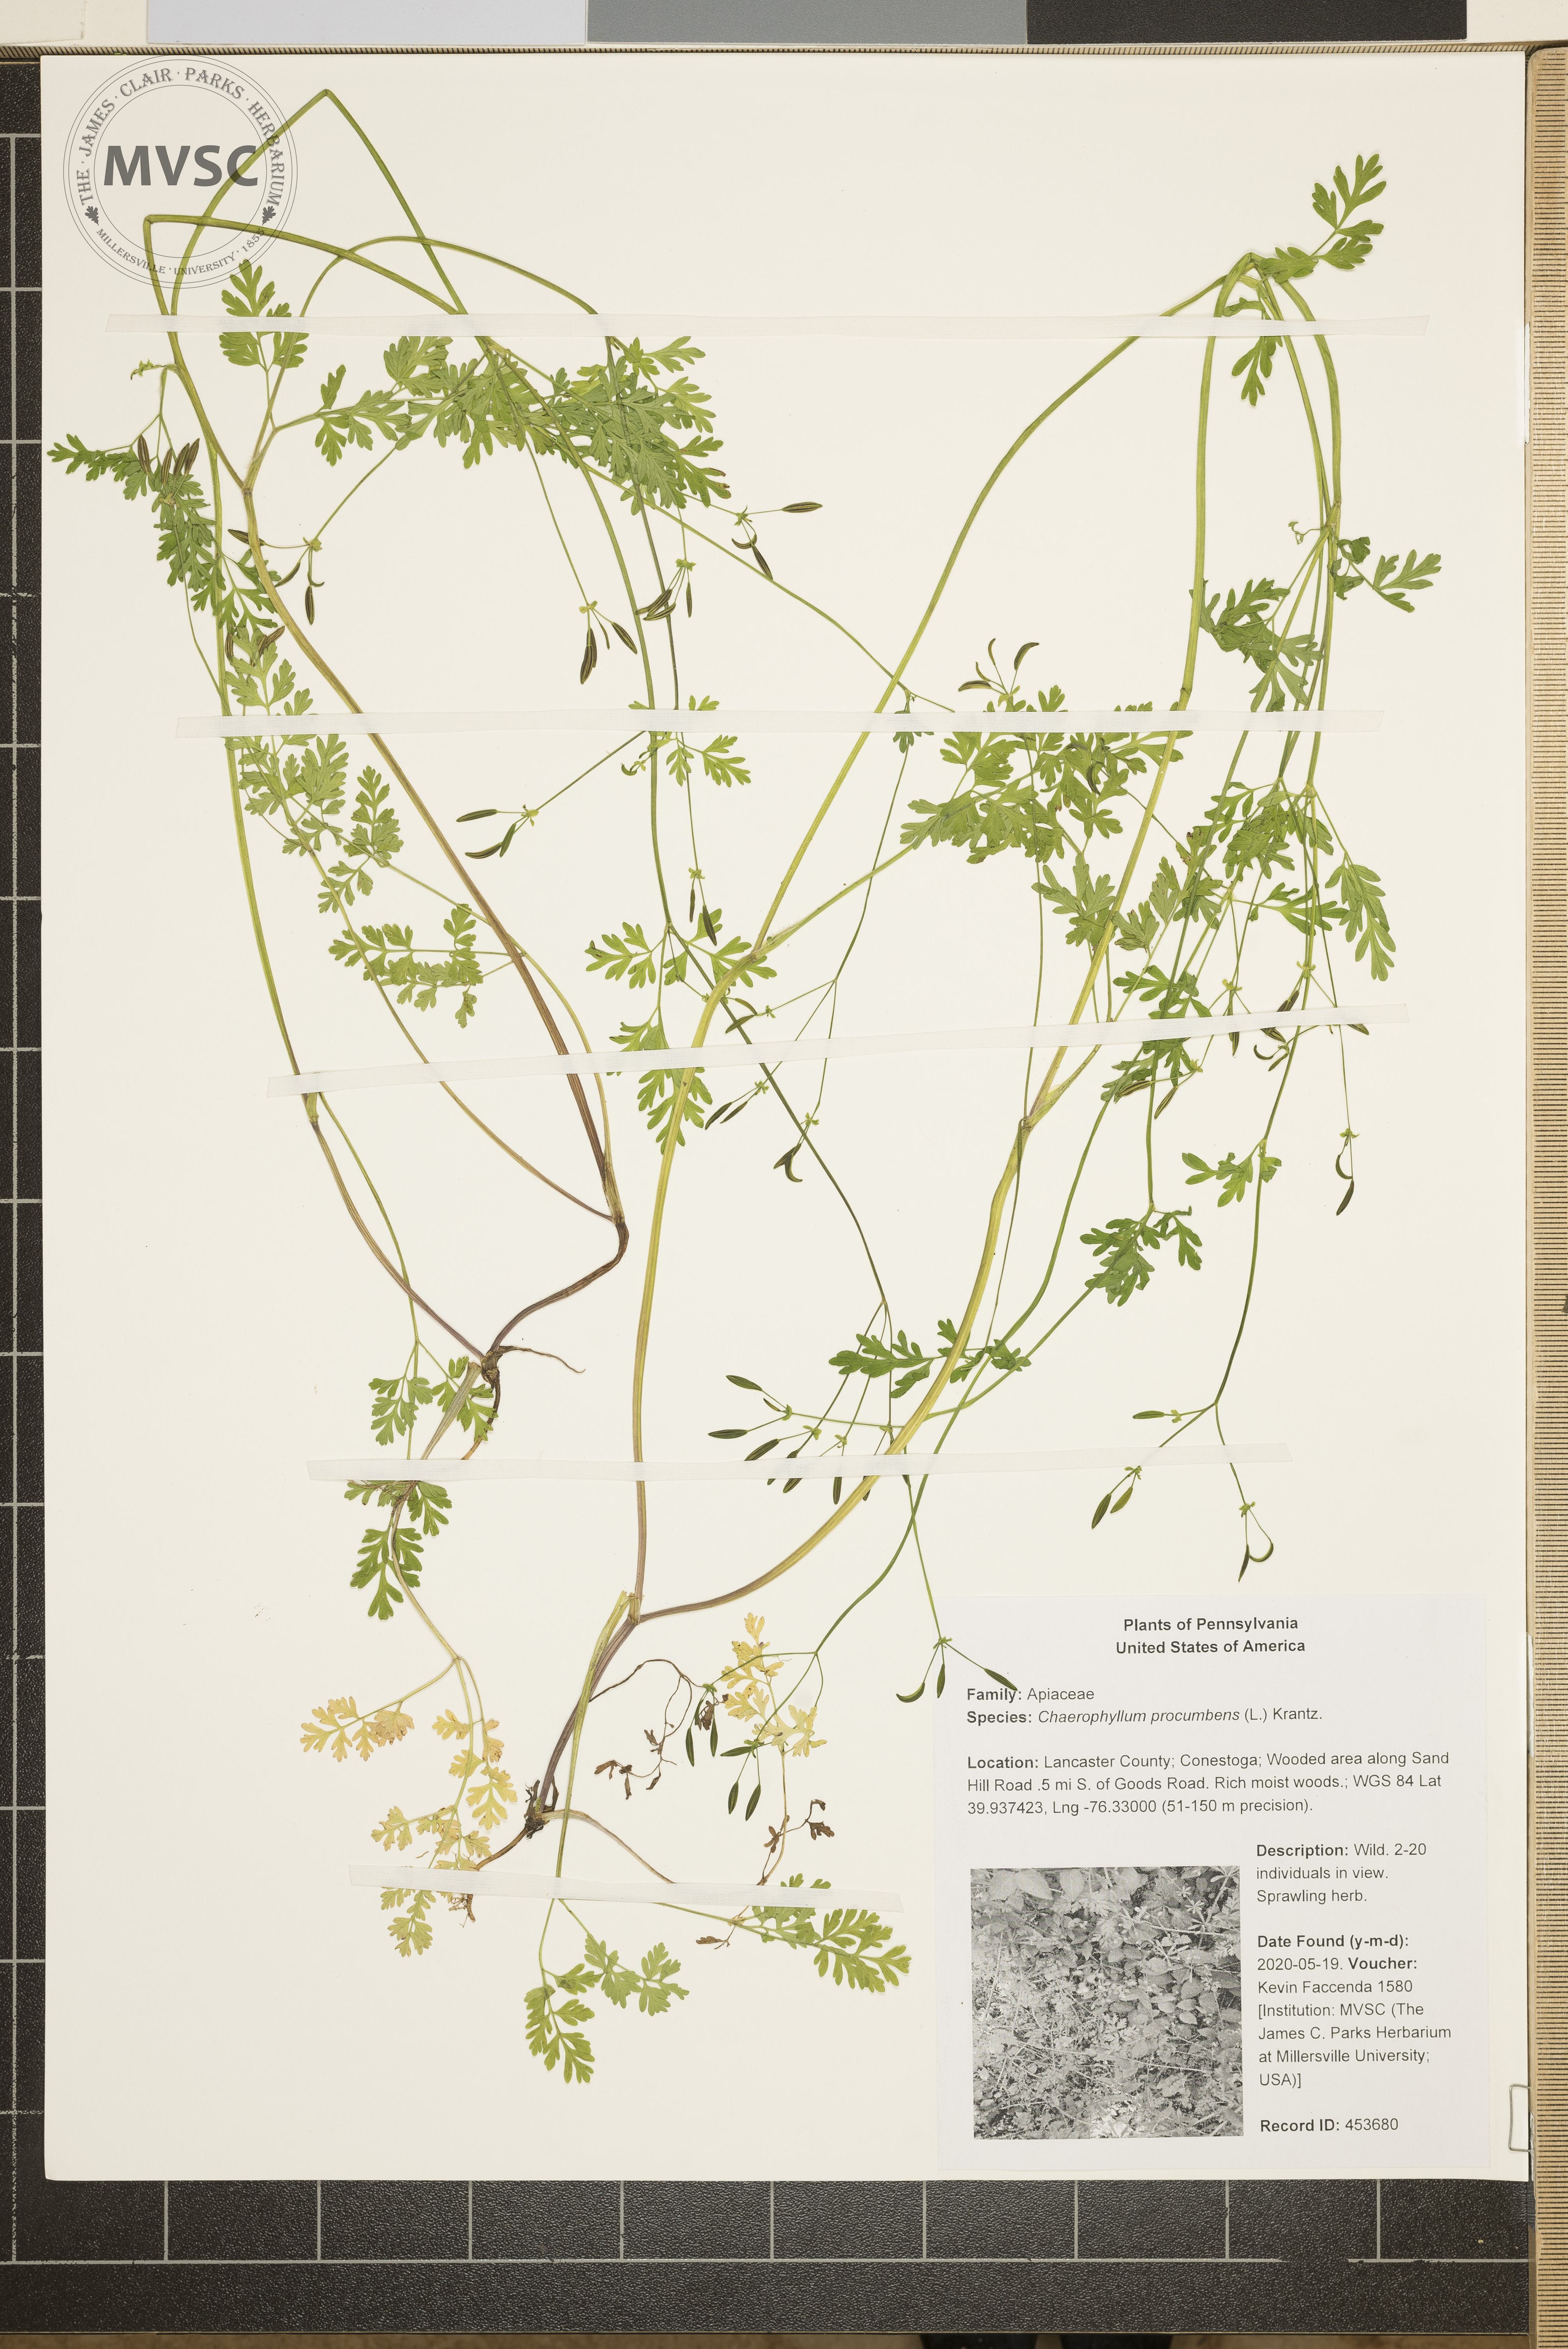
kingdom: Plantae
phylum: Tracheophyta
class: Magnoliopsida
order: Apiales
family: Apiaceae
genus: Chaerophyllum
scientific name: Chaerophyllum procumbens
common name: Spreading chervil
